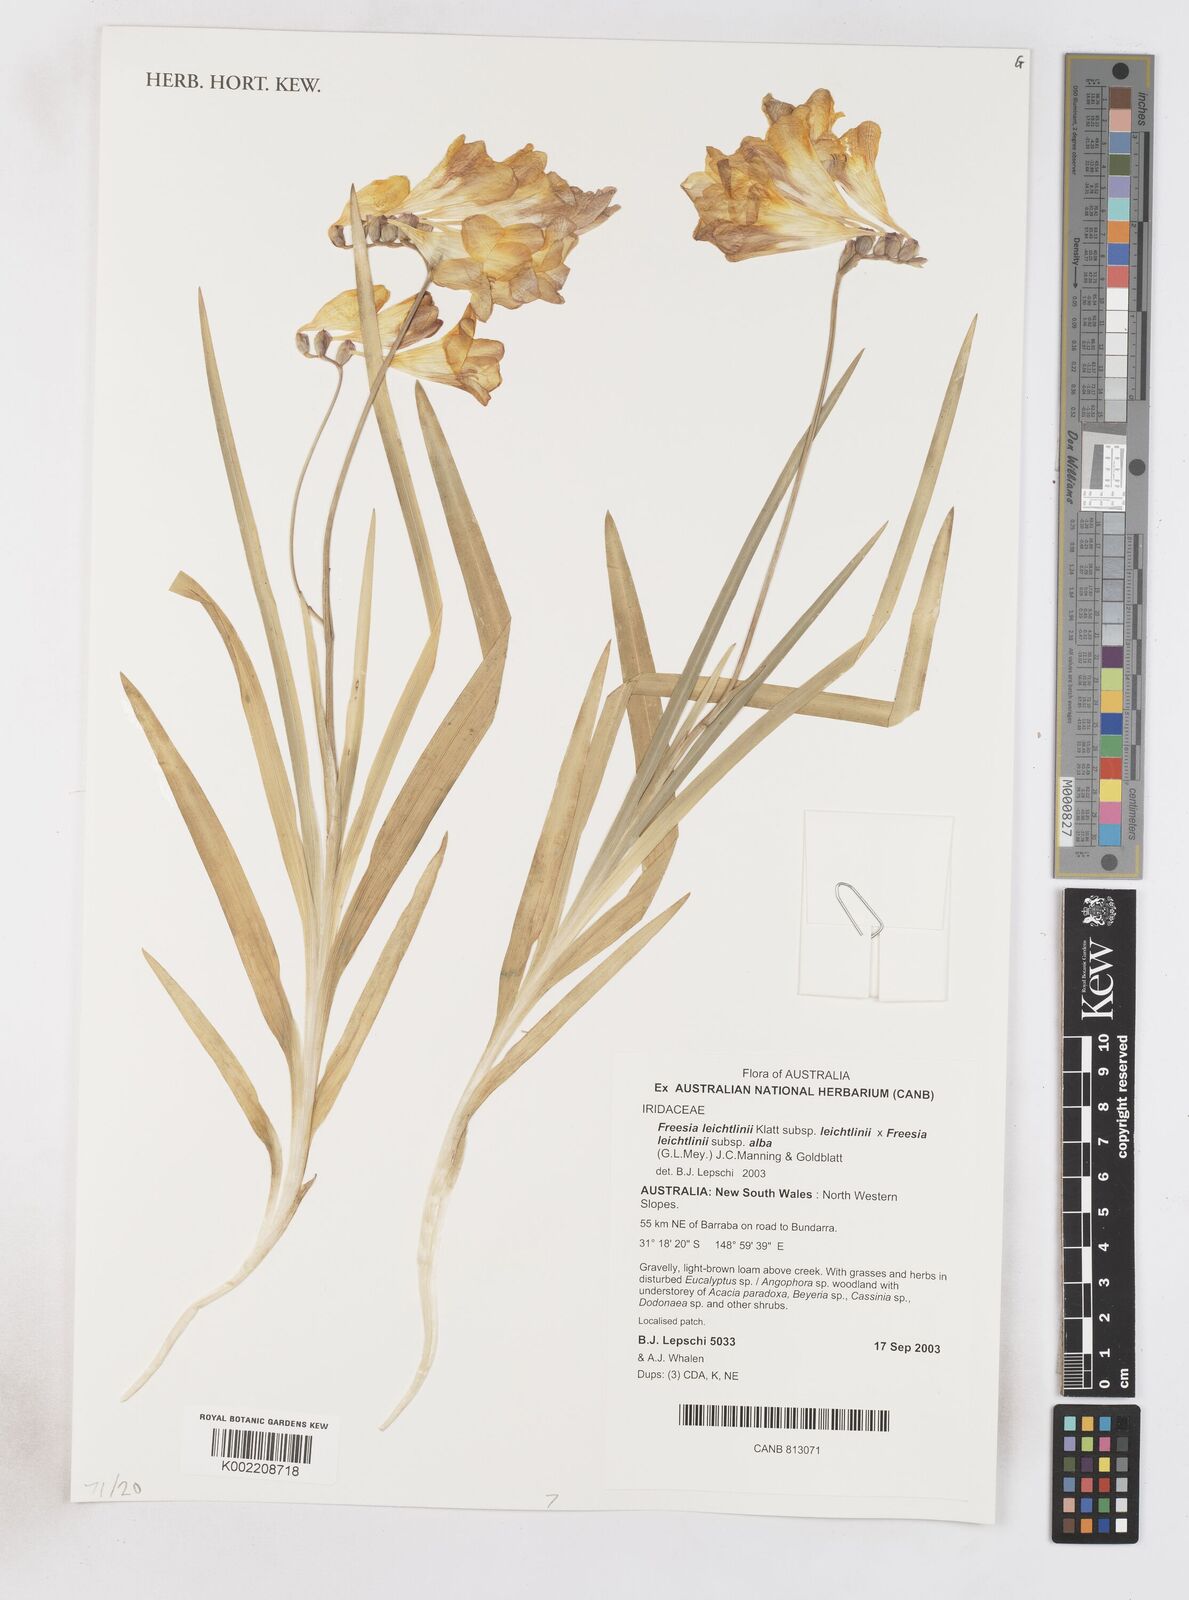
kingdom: Plantae
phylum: Tracheophyta
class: Liliopsida
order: Asparagales
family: Iridaceae
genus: Freesia
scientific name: Freesia leichtlinii
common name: Freesia
